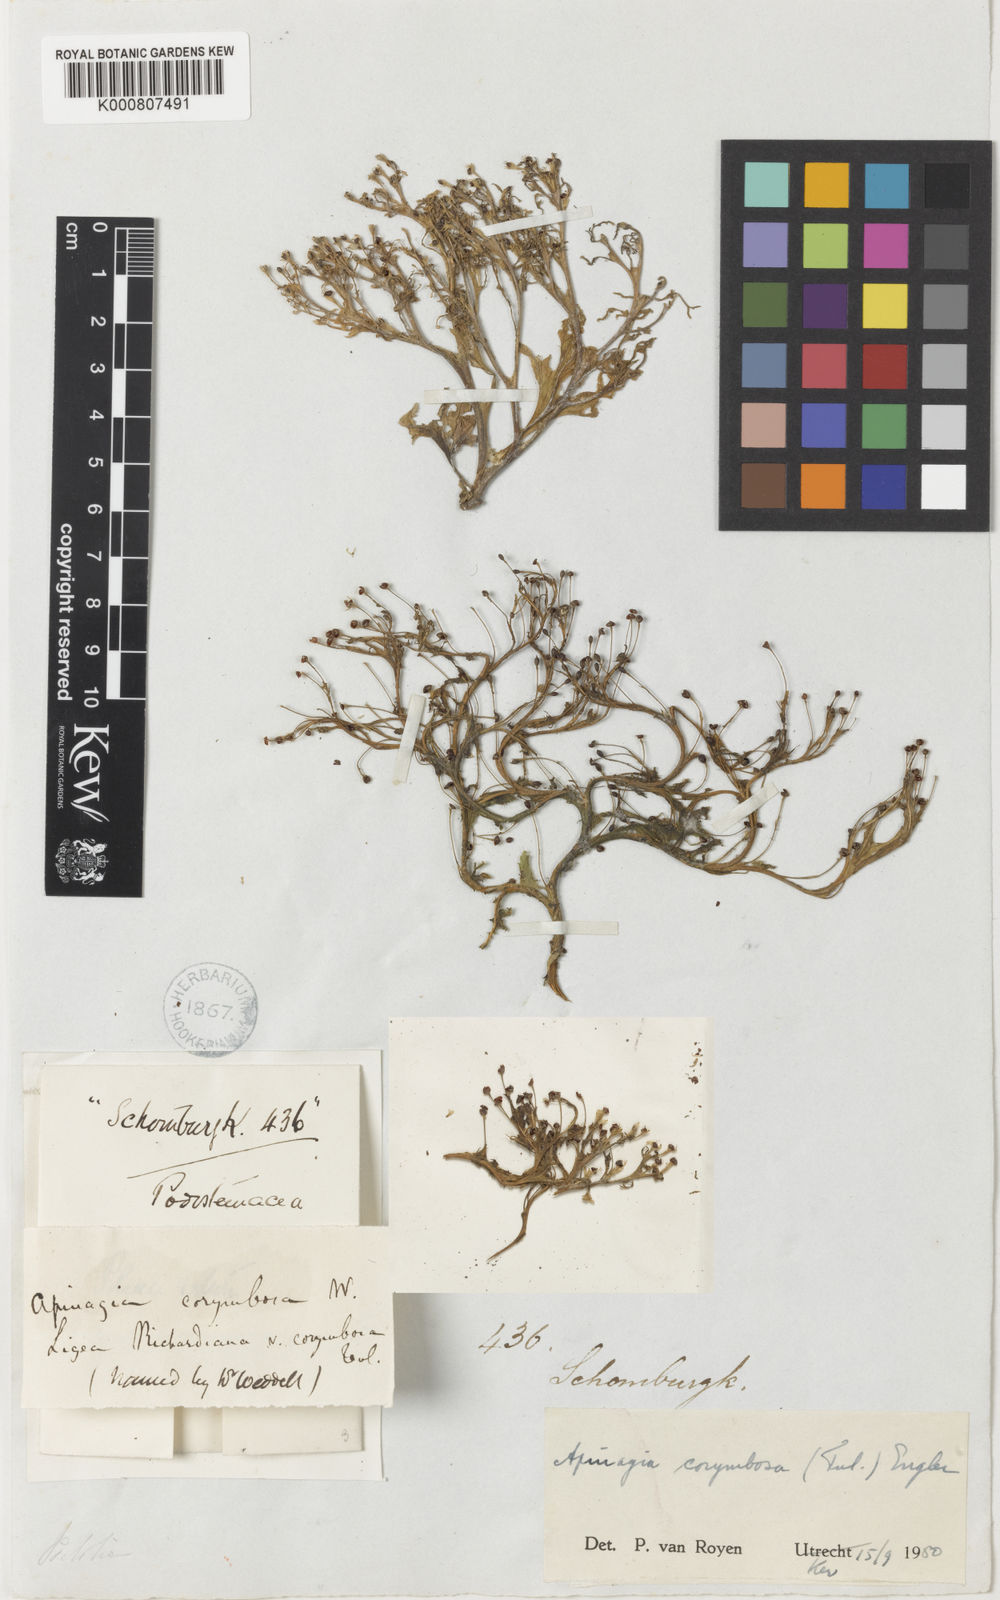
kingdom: Plantae
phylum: Tracheophyta
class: Magnoliopsida
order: Malpighiales
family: Podostemaceae
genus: Apinagia
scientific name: Apinagia corymbosa
